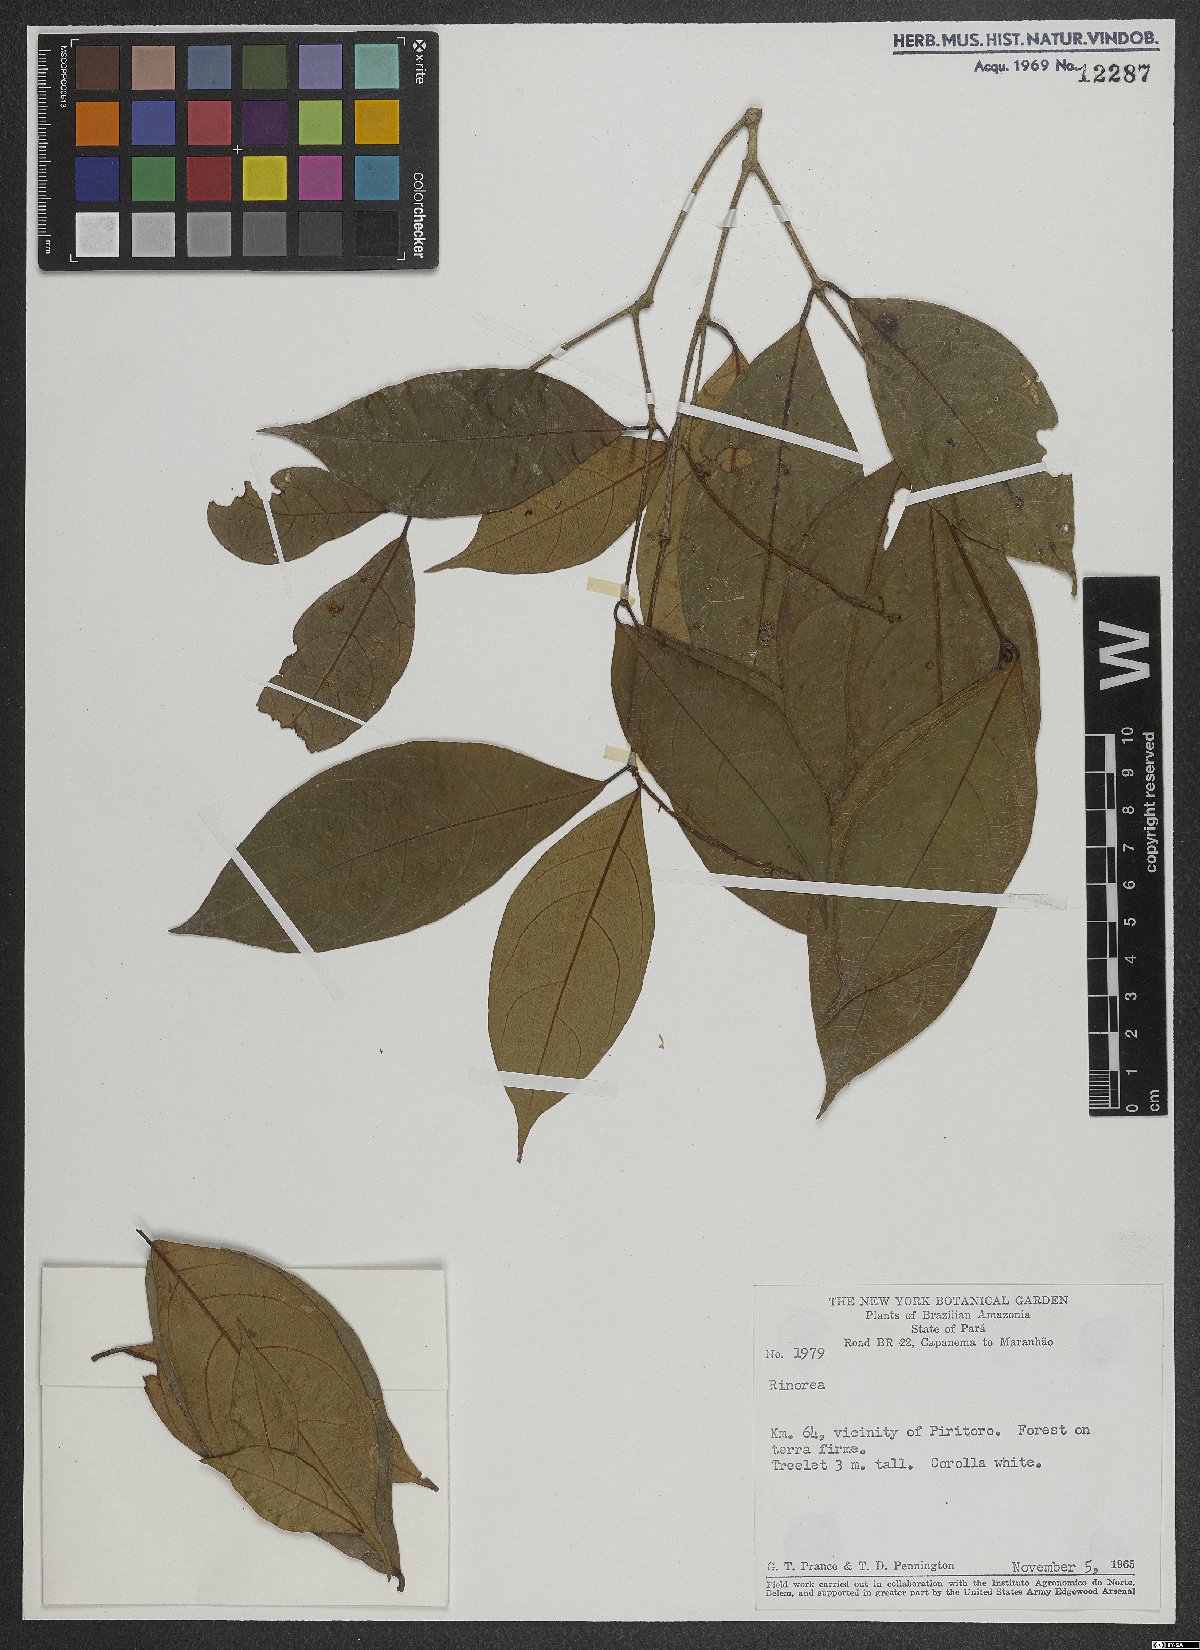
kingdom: Plantae
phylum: Tracheophyta
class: Magnoliopsida
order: Malpighiales
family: Violaceae
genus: Rinorea
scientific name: Rinorea
